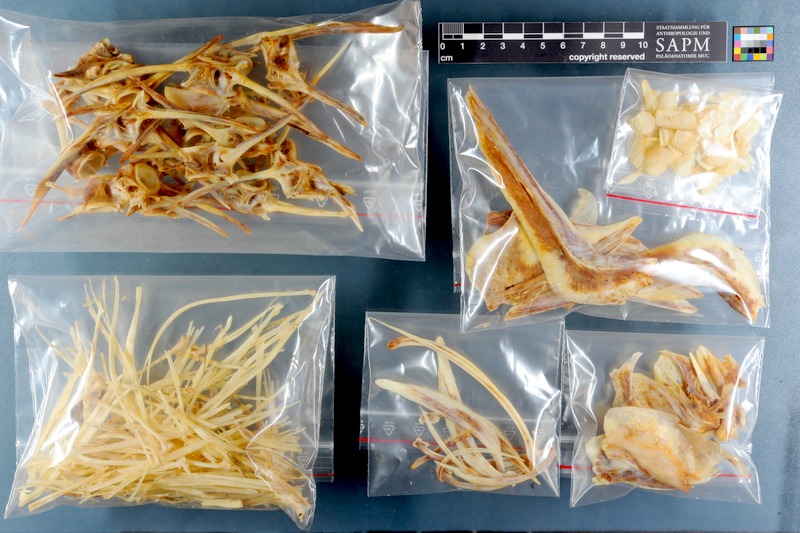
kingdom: Animalia
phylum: Chordata
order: Perciformes
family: Sparidae
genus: Cymatoceps
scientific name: Cymatoceps nasutus
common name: Black musselcracker
